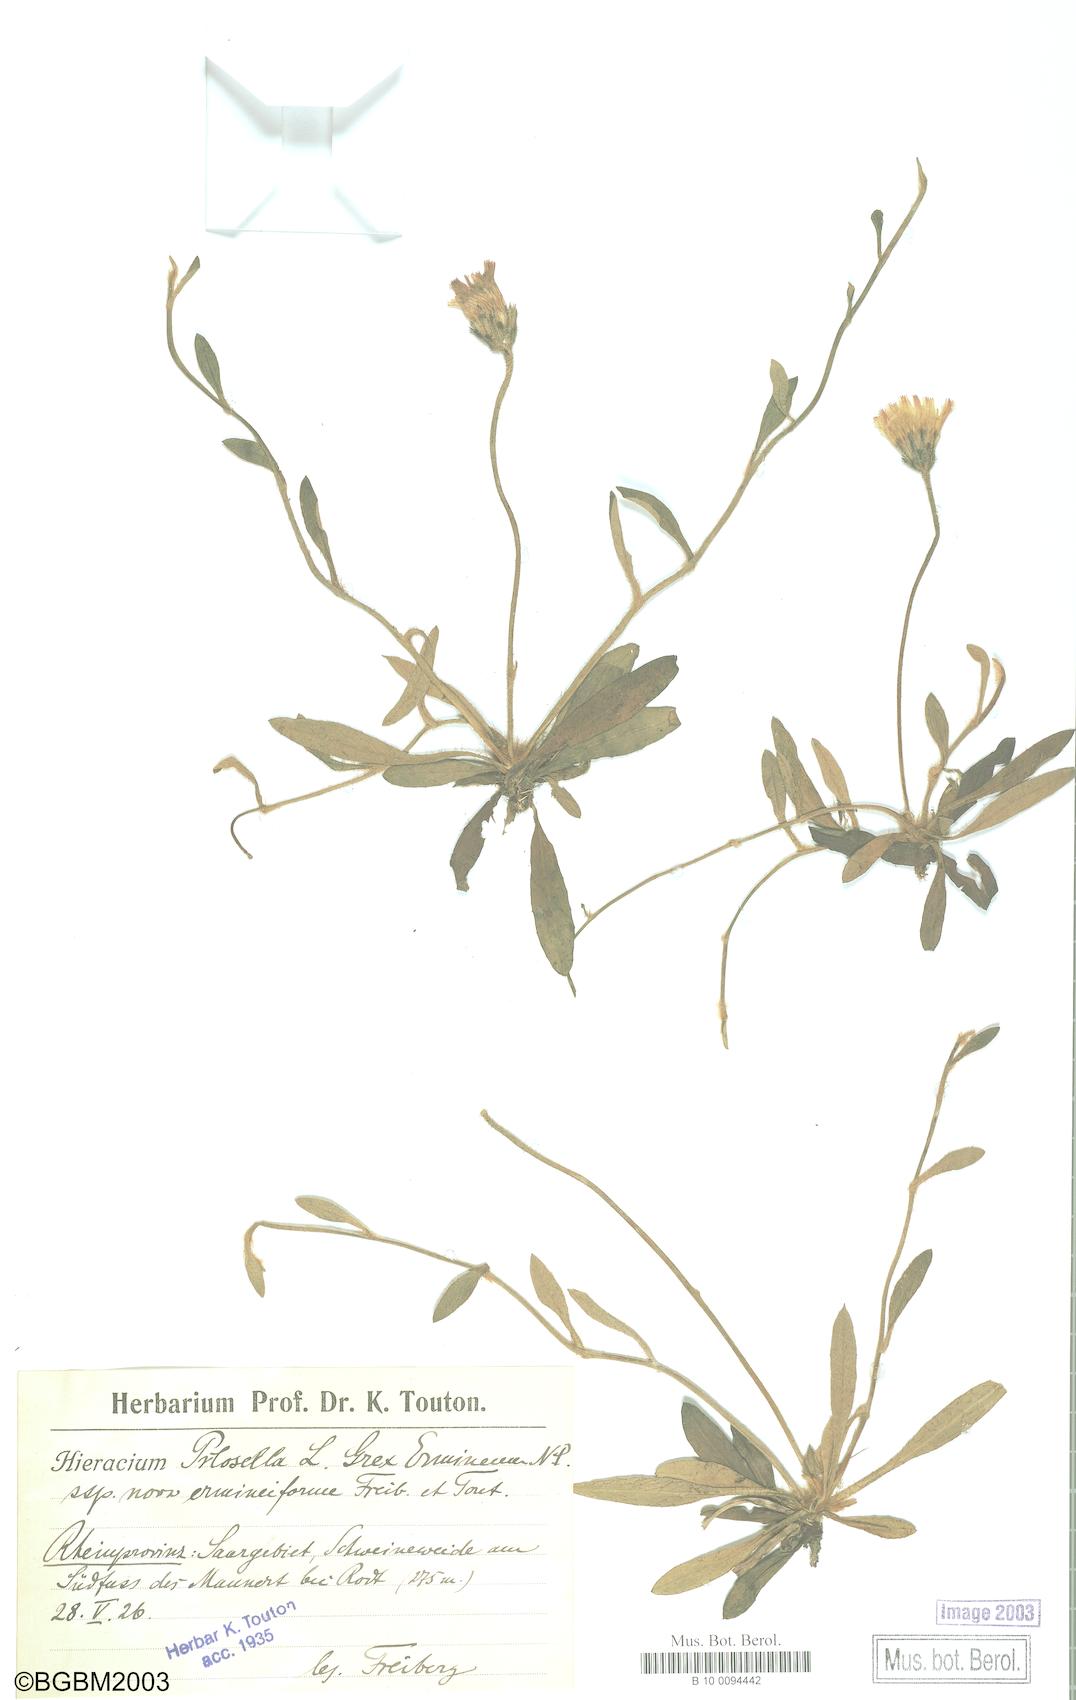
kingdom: Plantae
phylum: Tracheophyta
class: Magnoliopsida
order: Asterales
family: Asteraceae
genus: Pilosella
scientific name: Pilosella officinarum
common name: Mouse-ear hawkweed
